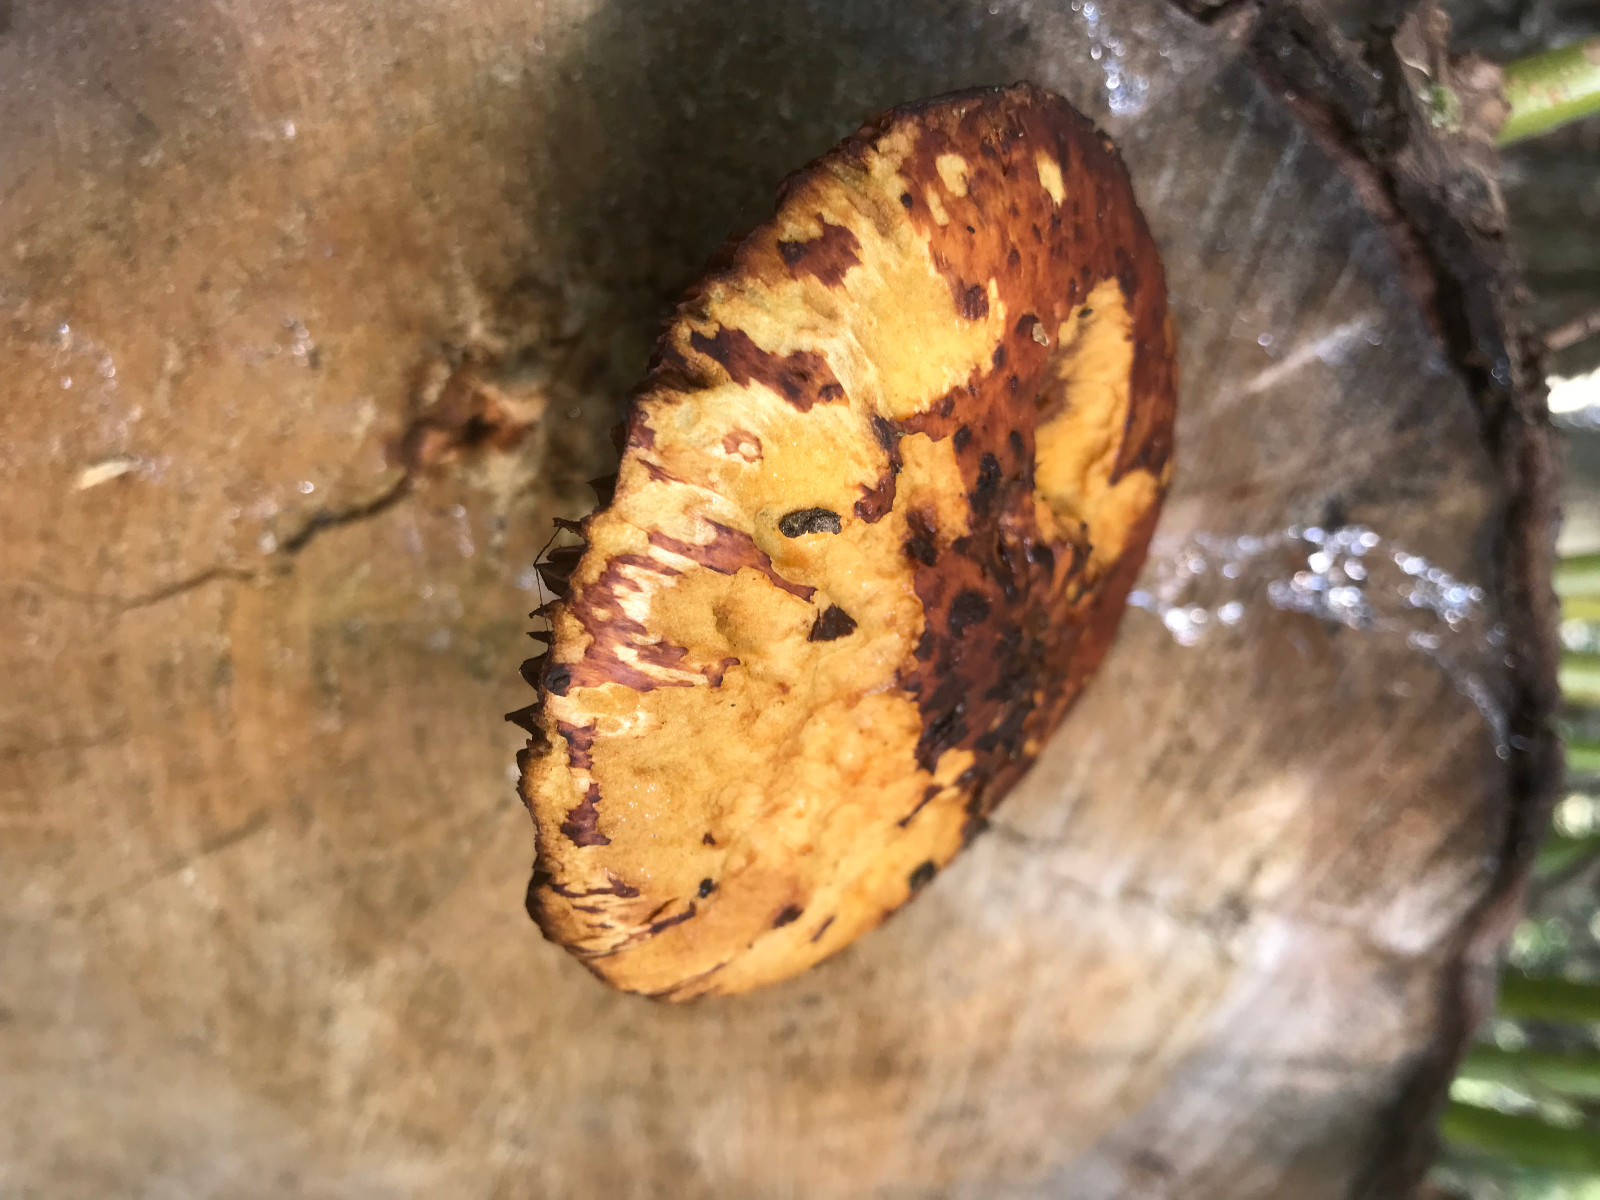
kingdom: Fungi
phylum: Basidiomycota
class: Agaricomycetes
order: Agaricales
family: Strophariaceae
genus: Pholiota
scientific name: Pholiota aurivella
